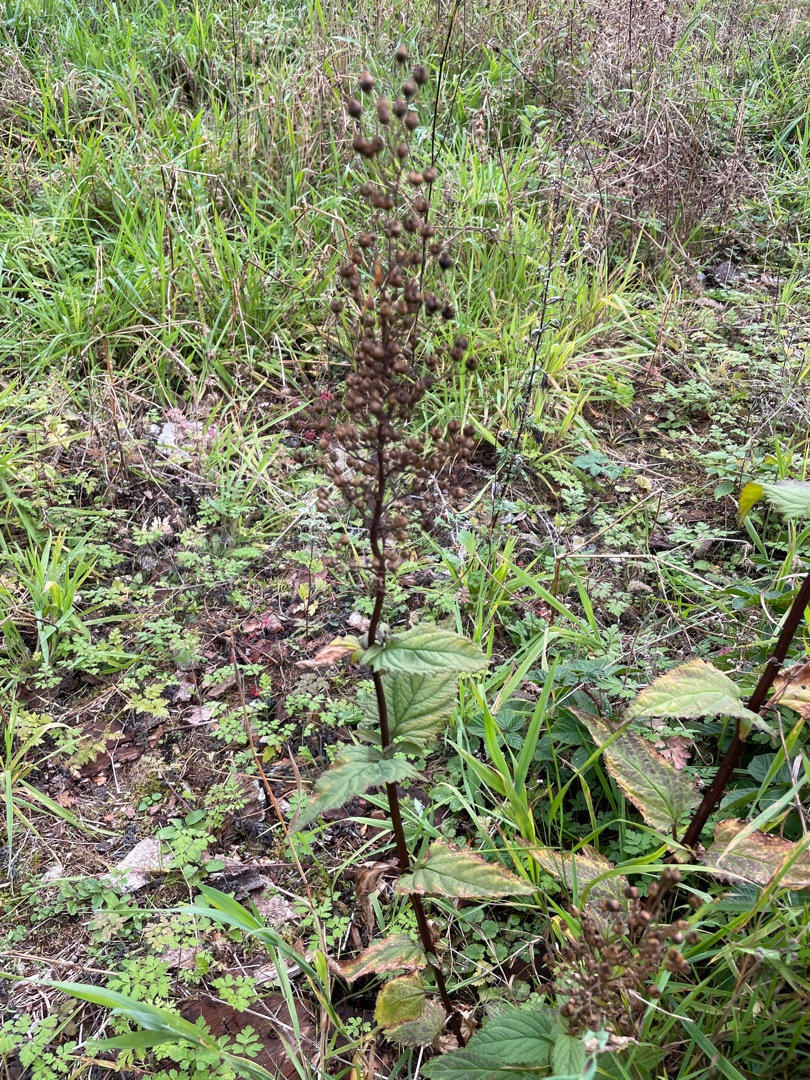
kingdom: Plantae
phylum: Tracheophyta
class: Magnoliopsida
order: Lamiales
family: Scrophulariaceae
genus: Scrophularia
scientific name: Scrophularia nodosa
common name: Knoldet brunrod
